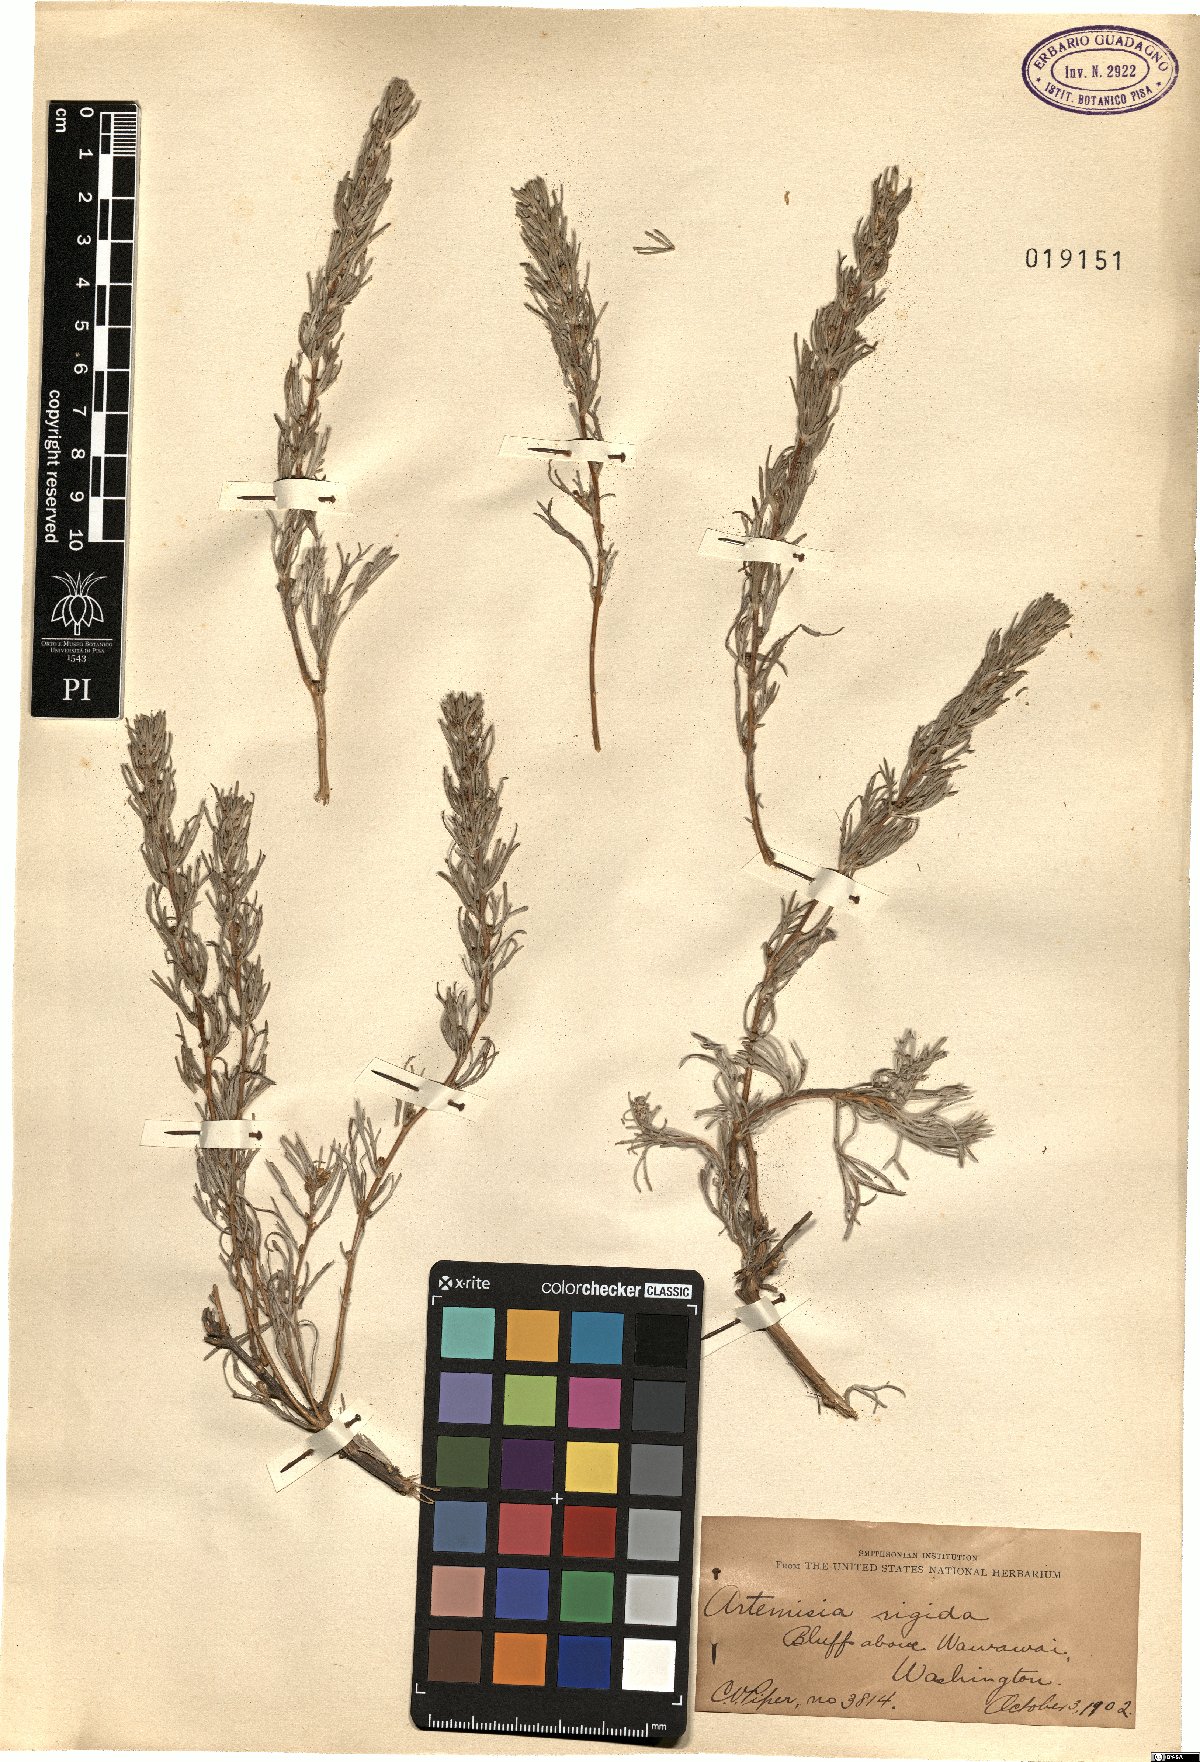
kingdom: Plantae
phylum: Tracheophyta
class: Magnoliopsida
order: Asterales
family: Asteraceae
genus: Artemisia
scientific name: Artemisia rigida
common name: Scabland sagebrush
